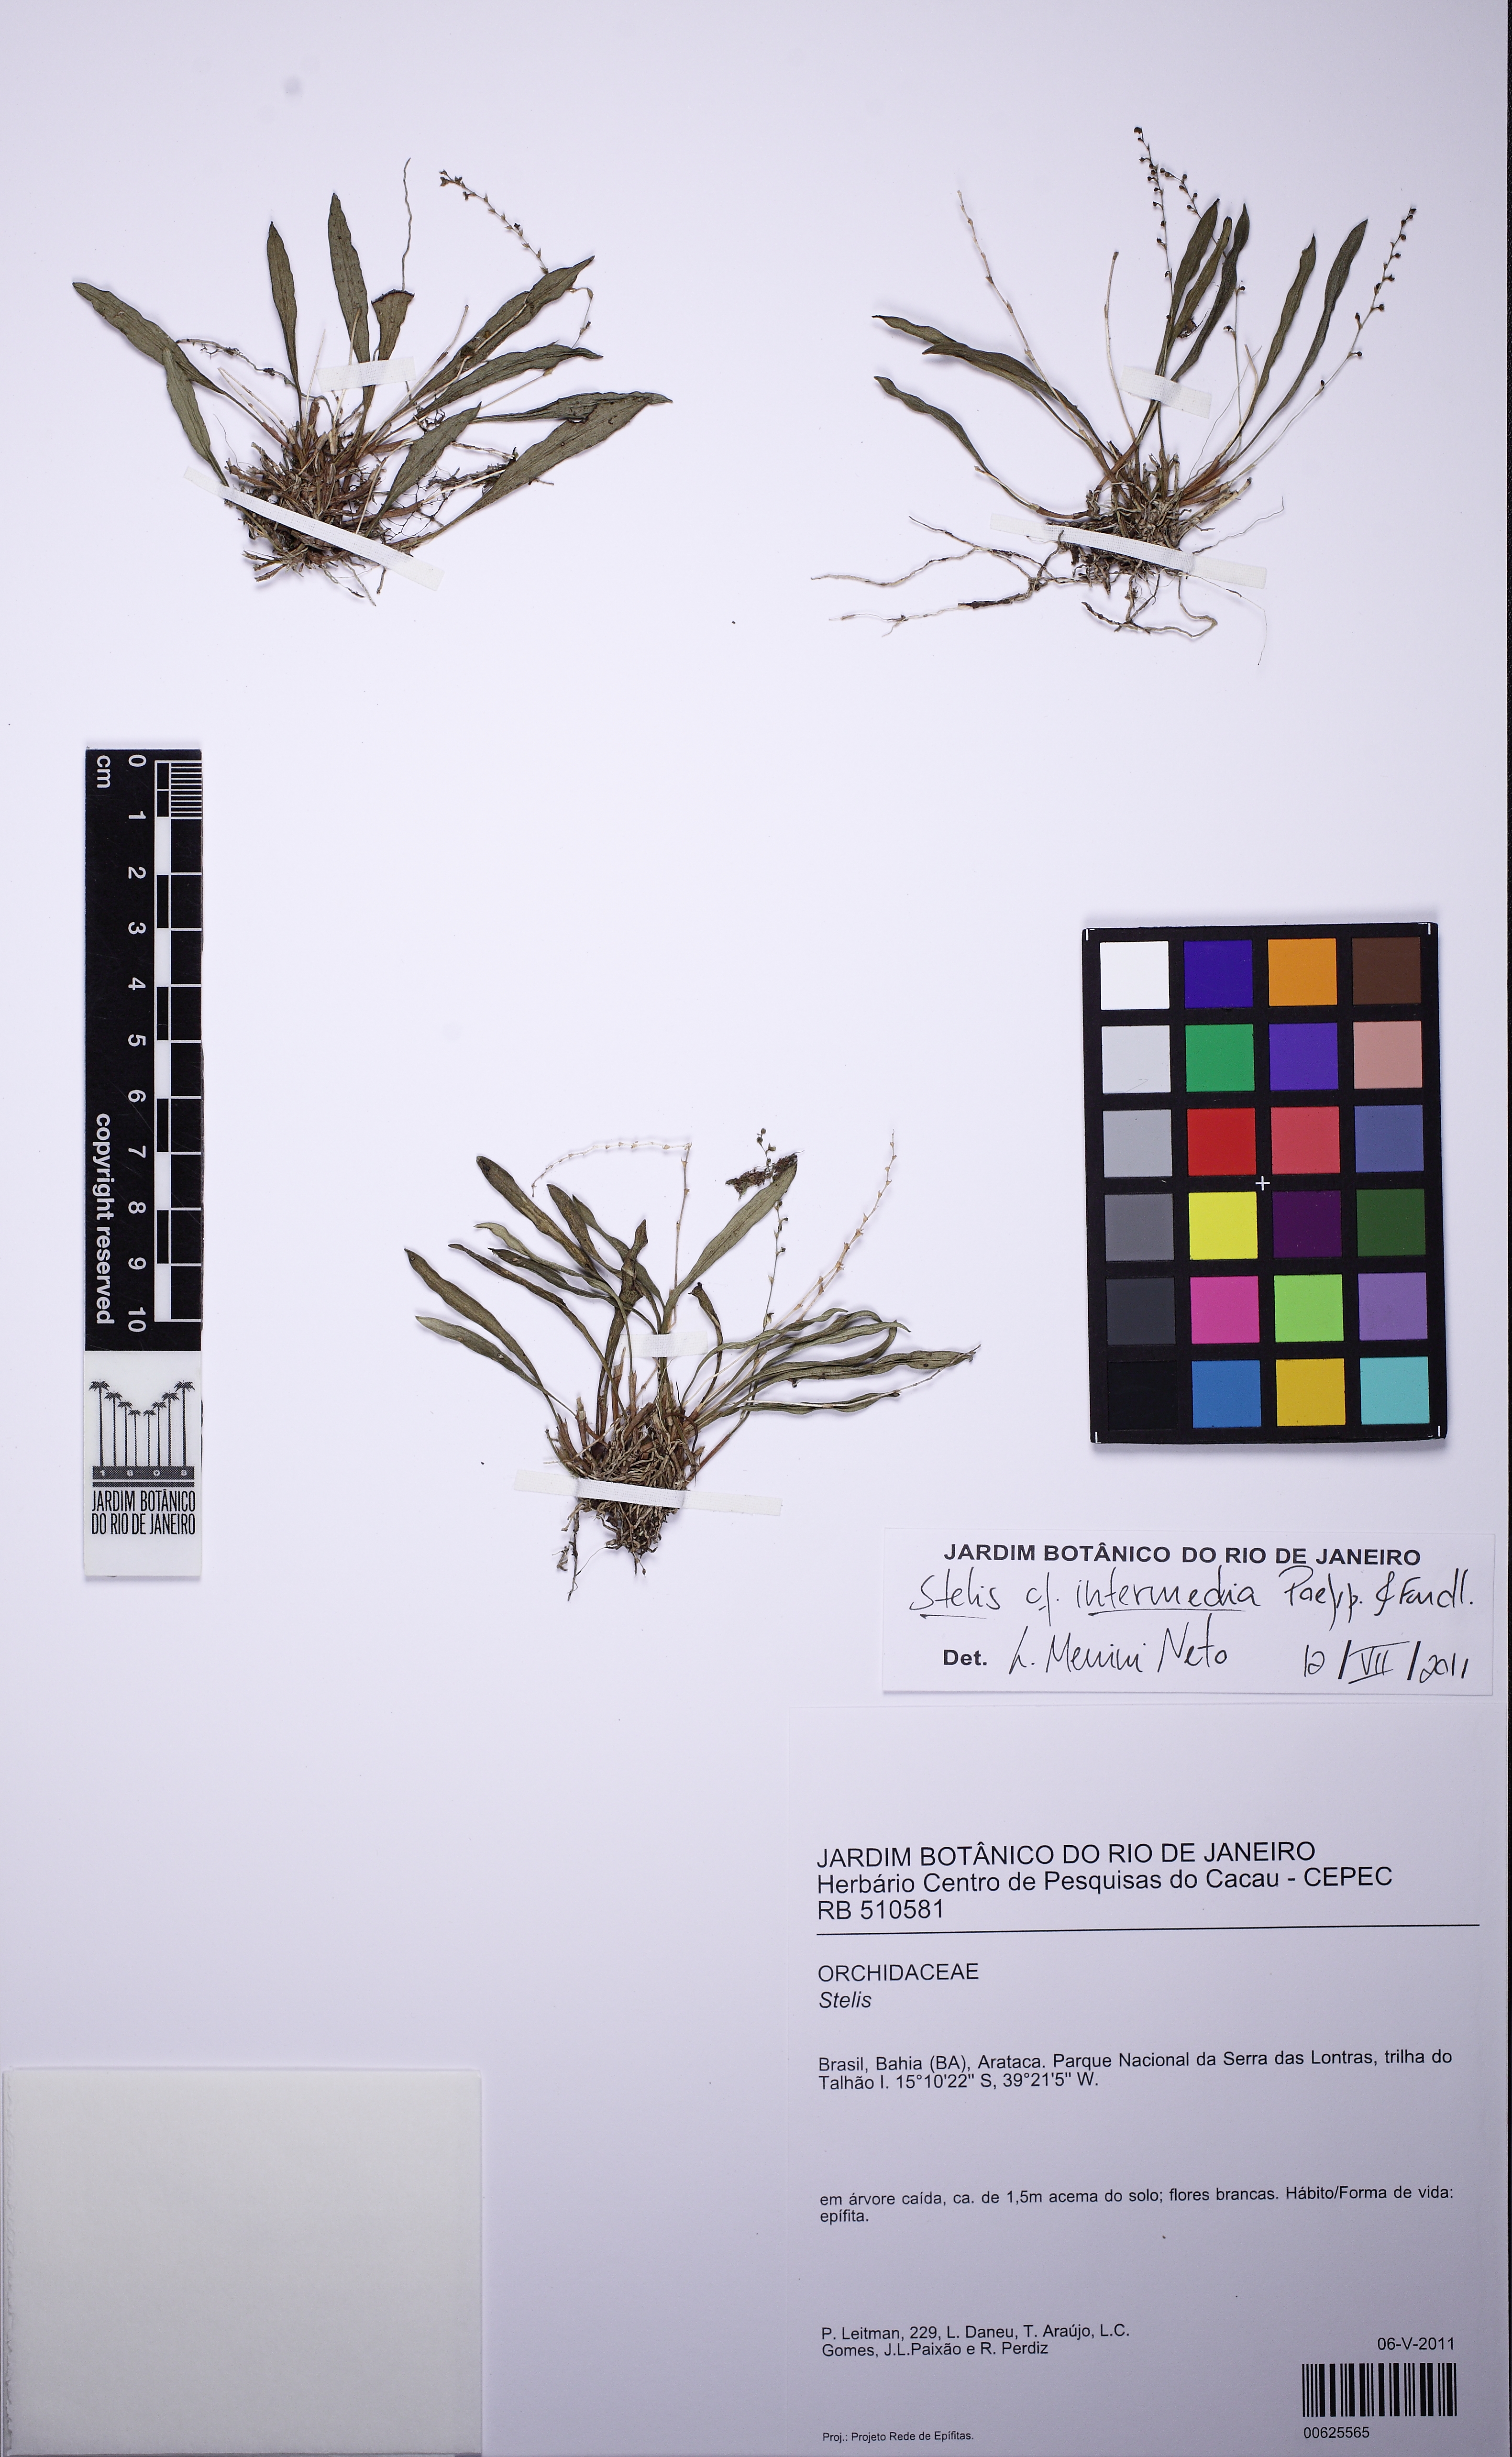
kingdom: Plantae
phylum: Tracheophyta
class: Liliopsida
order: Asparagales
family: Orchidaceae
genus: Stelis
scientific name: Stelis intermedia
